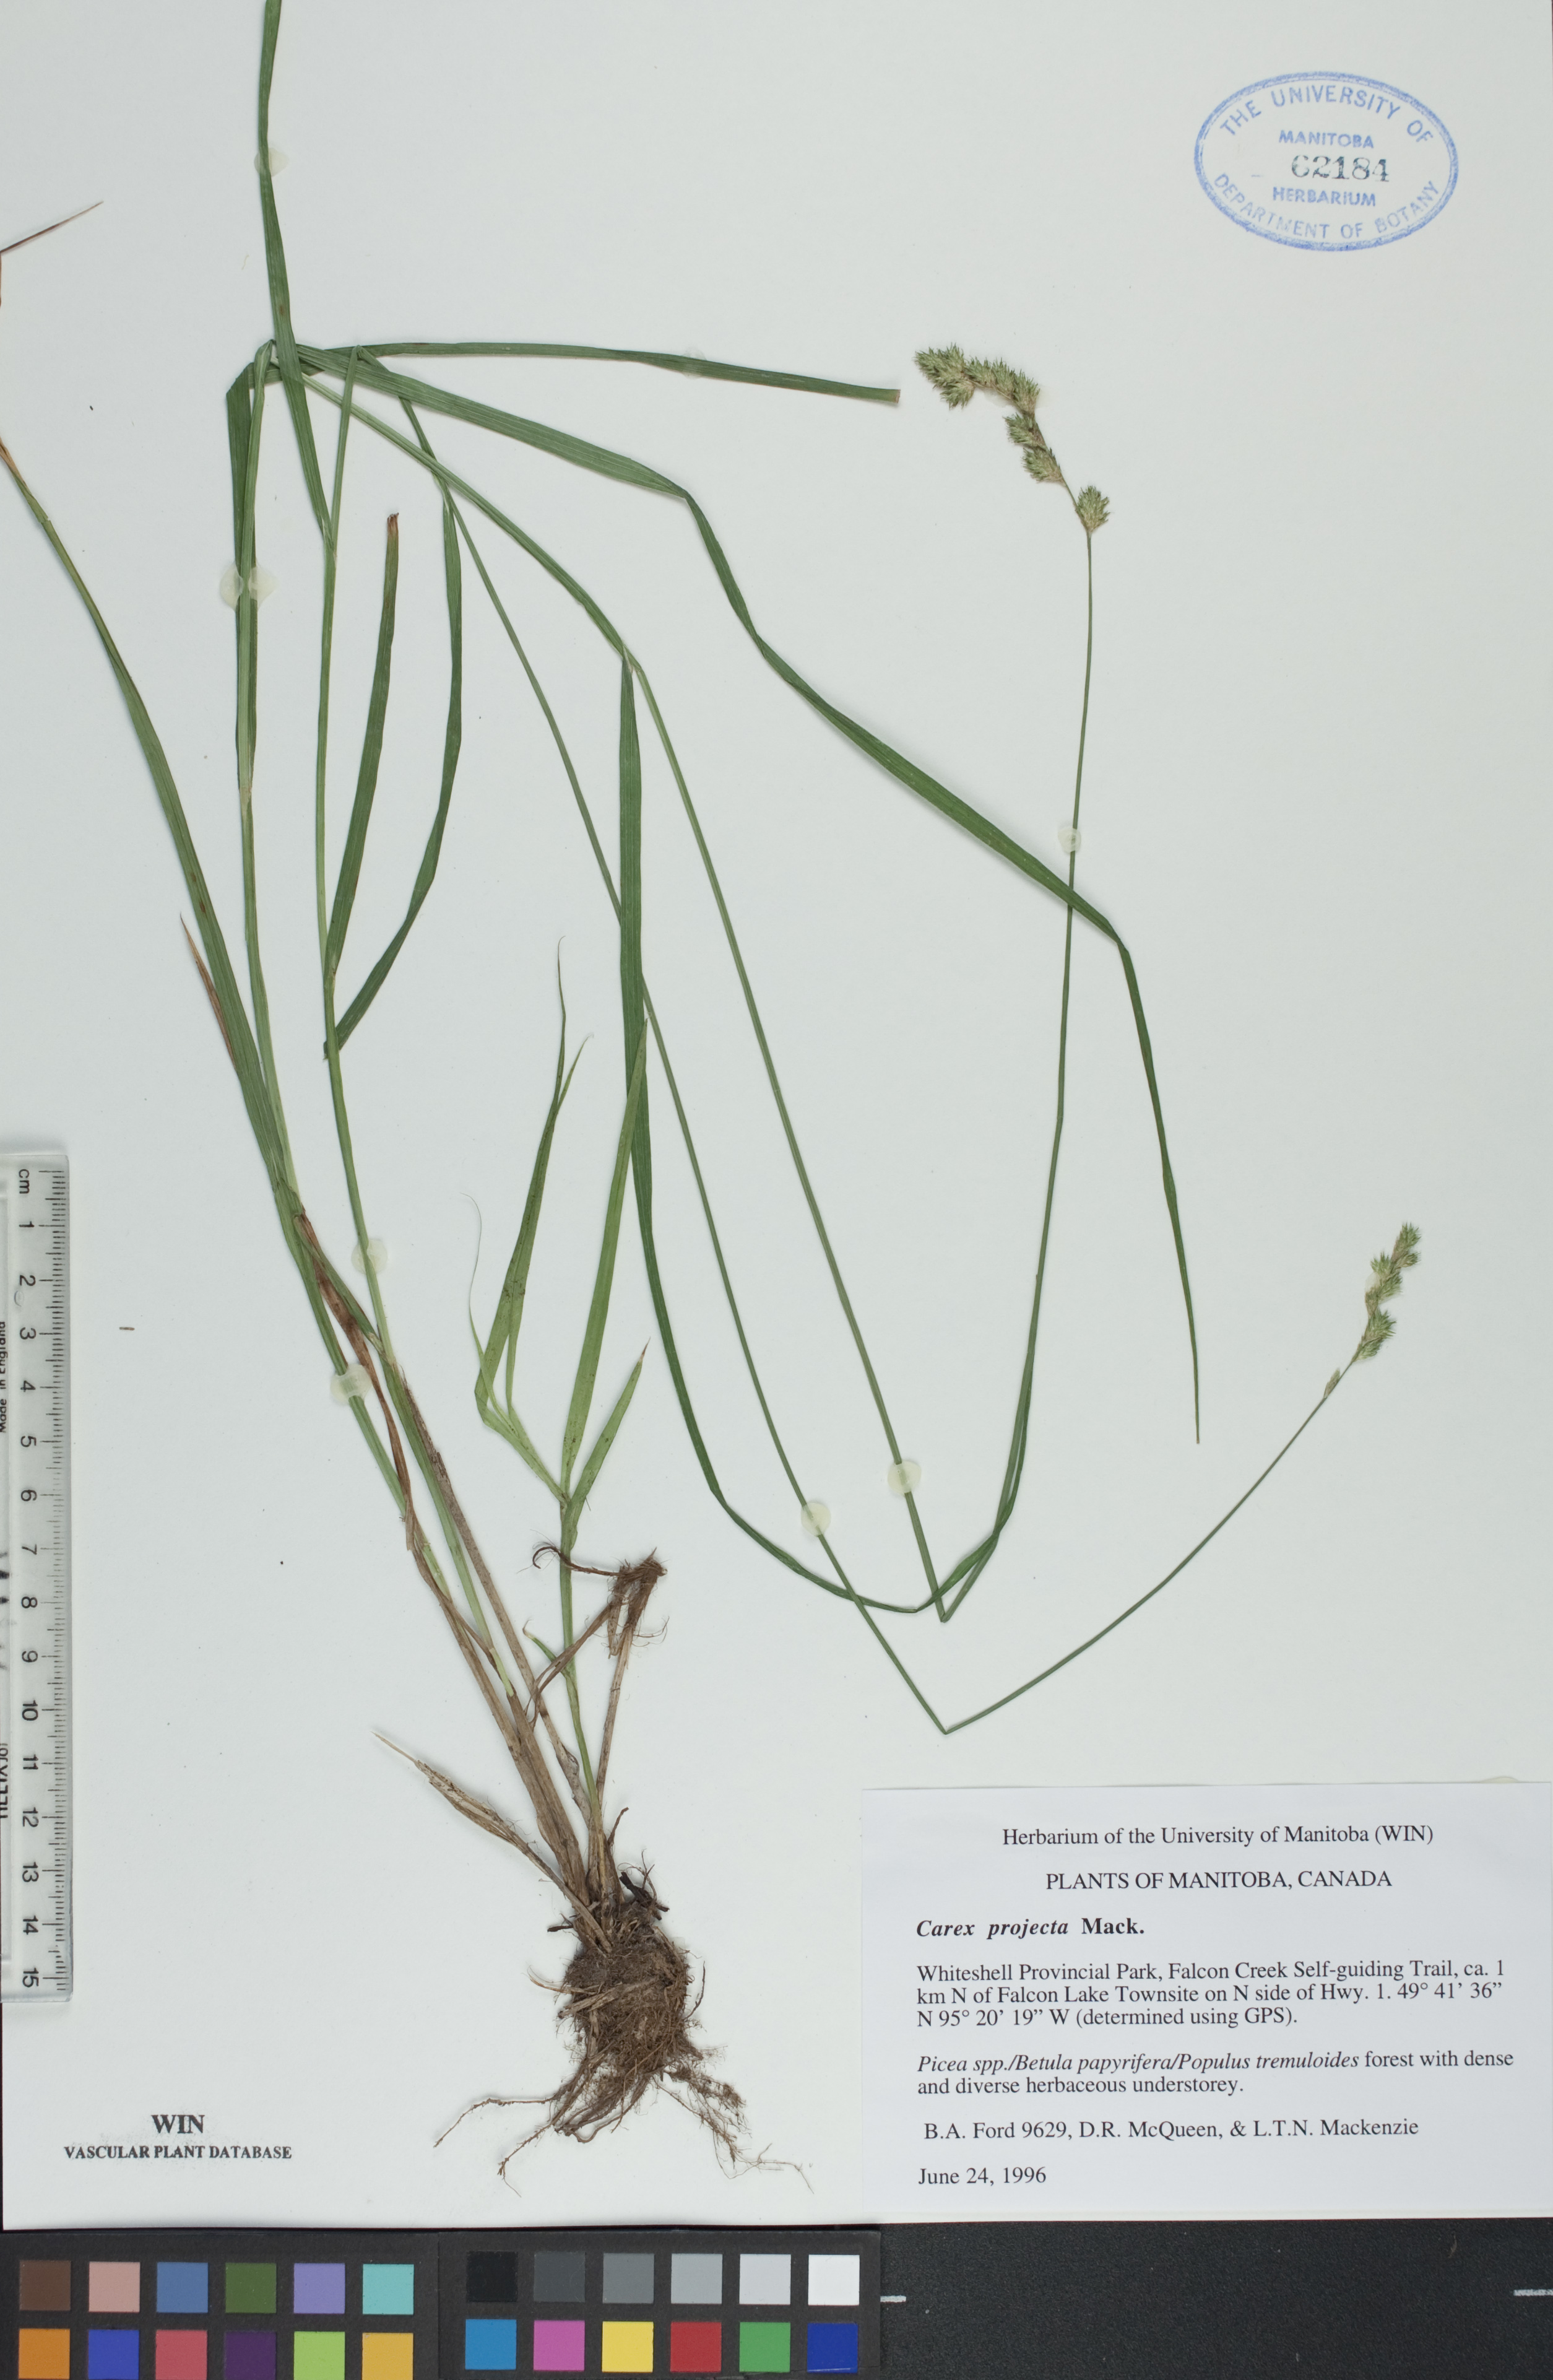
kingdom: Plantae
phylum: Tracheophyta
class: Liliopsida
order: Poales
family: Cyperaceae
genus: Carex
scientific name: Carex projecta
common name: Loose-headed oval sedge
